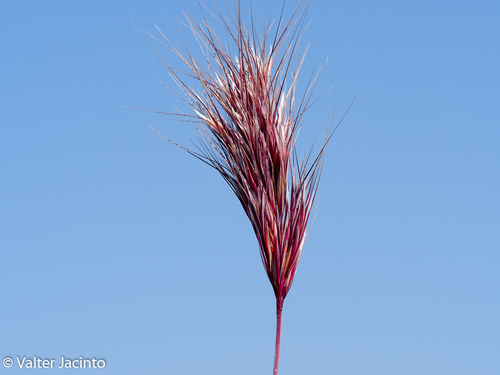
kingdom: Plantae
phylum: Tracheophyta
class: Liliopsida
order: Poales
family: Poaceae
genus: Bromus
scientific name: Bromus rubens
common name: Red brome
